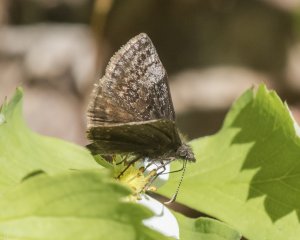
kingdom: Animalia
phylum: Arthropoda
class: Insecta
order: Lepidoptera
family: Hesperiidae
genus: Erynnis
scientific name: Erynnis icelus
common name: Dreamy Duskywing
